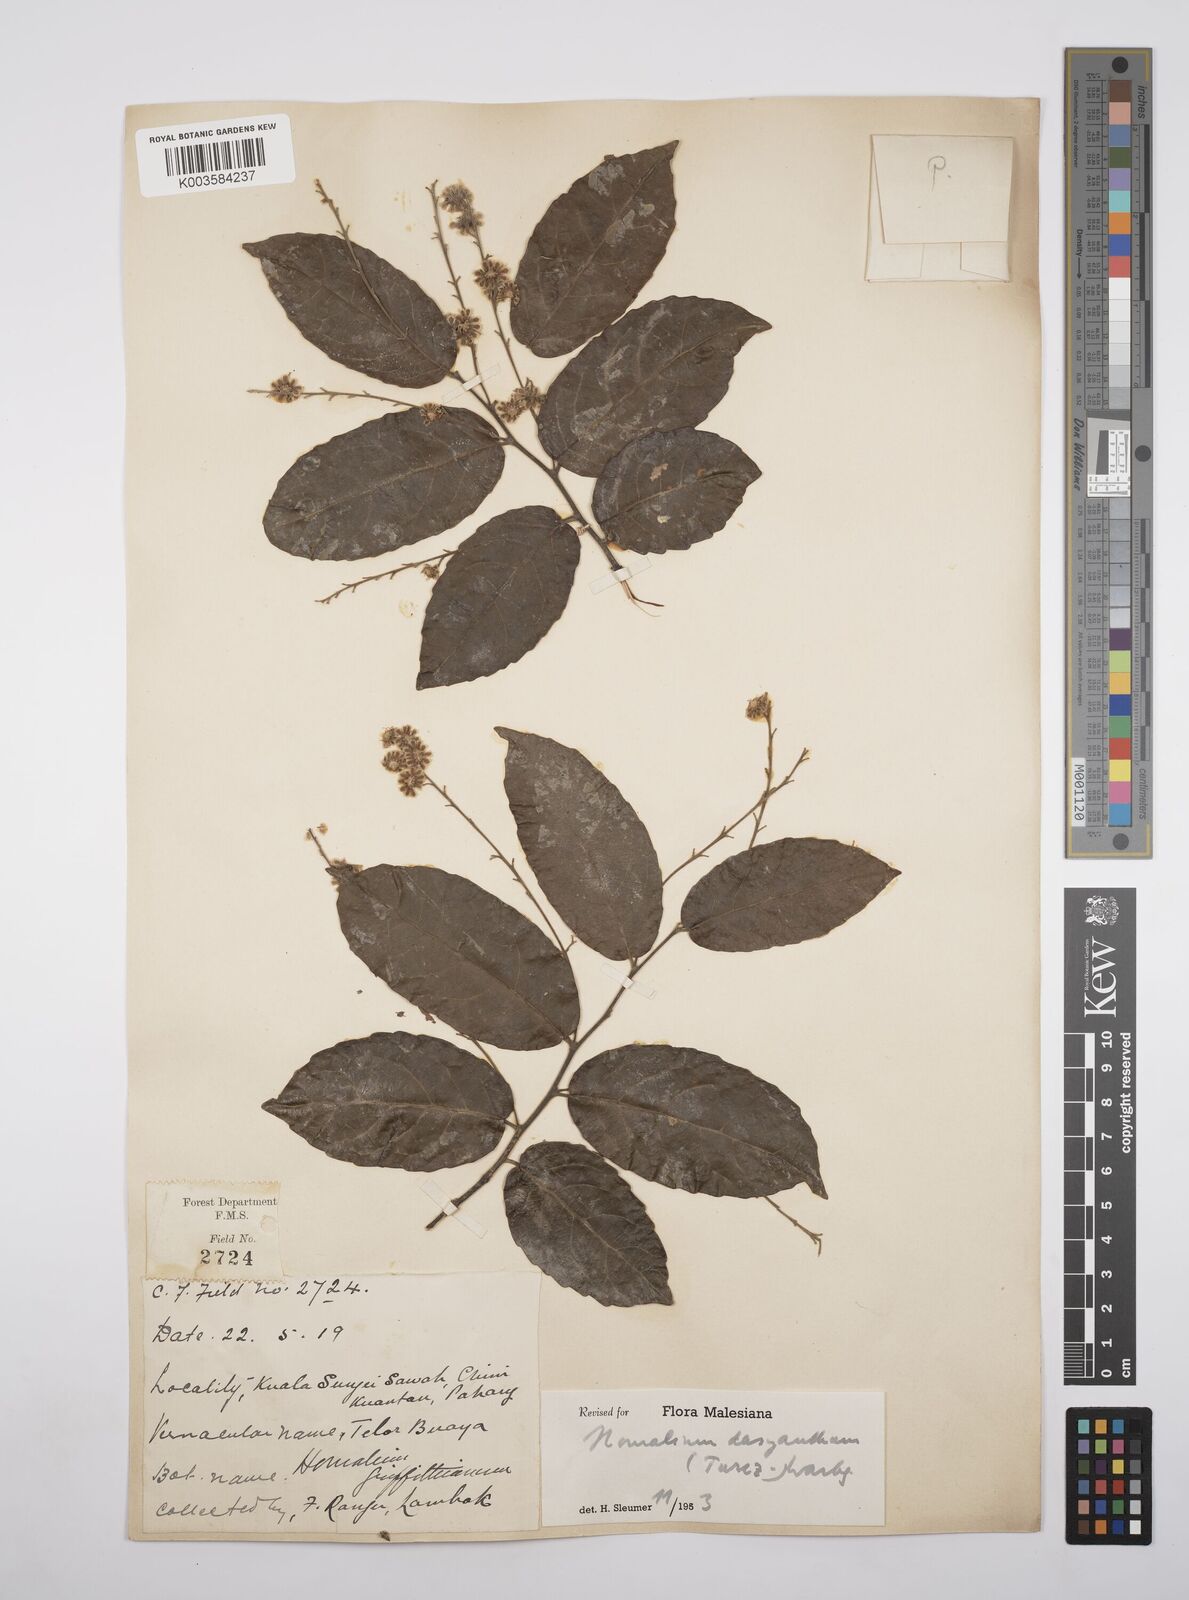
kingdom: Plantae
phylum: Tracheophyta
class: Magnoliopsida
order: Malpighiales
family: Salicaceae
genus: Homalium
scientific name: Homalium dasyanthum
